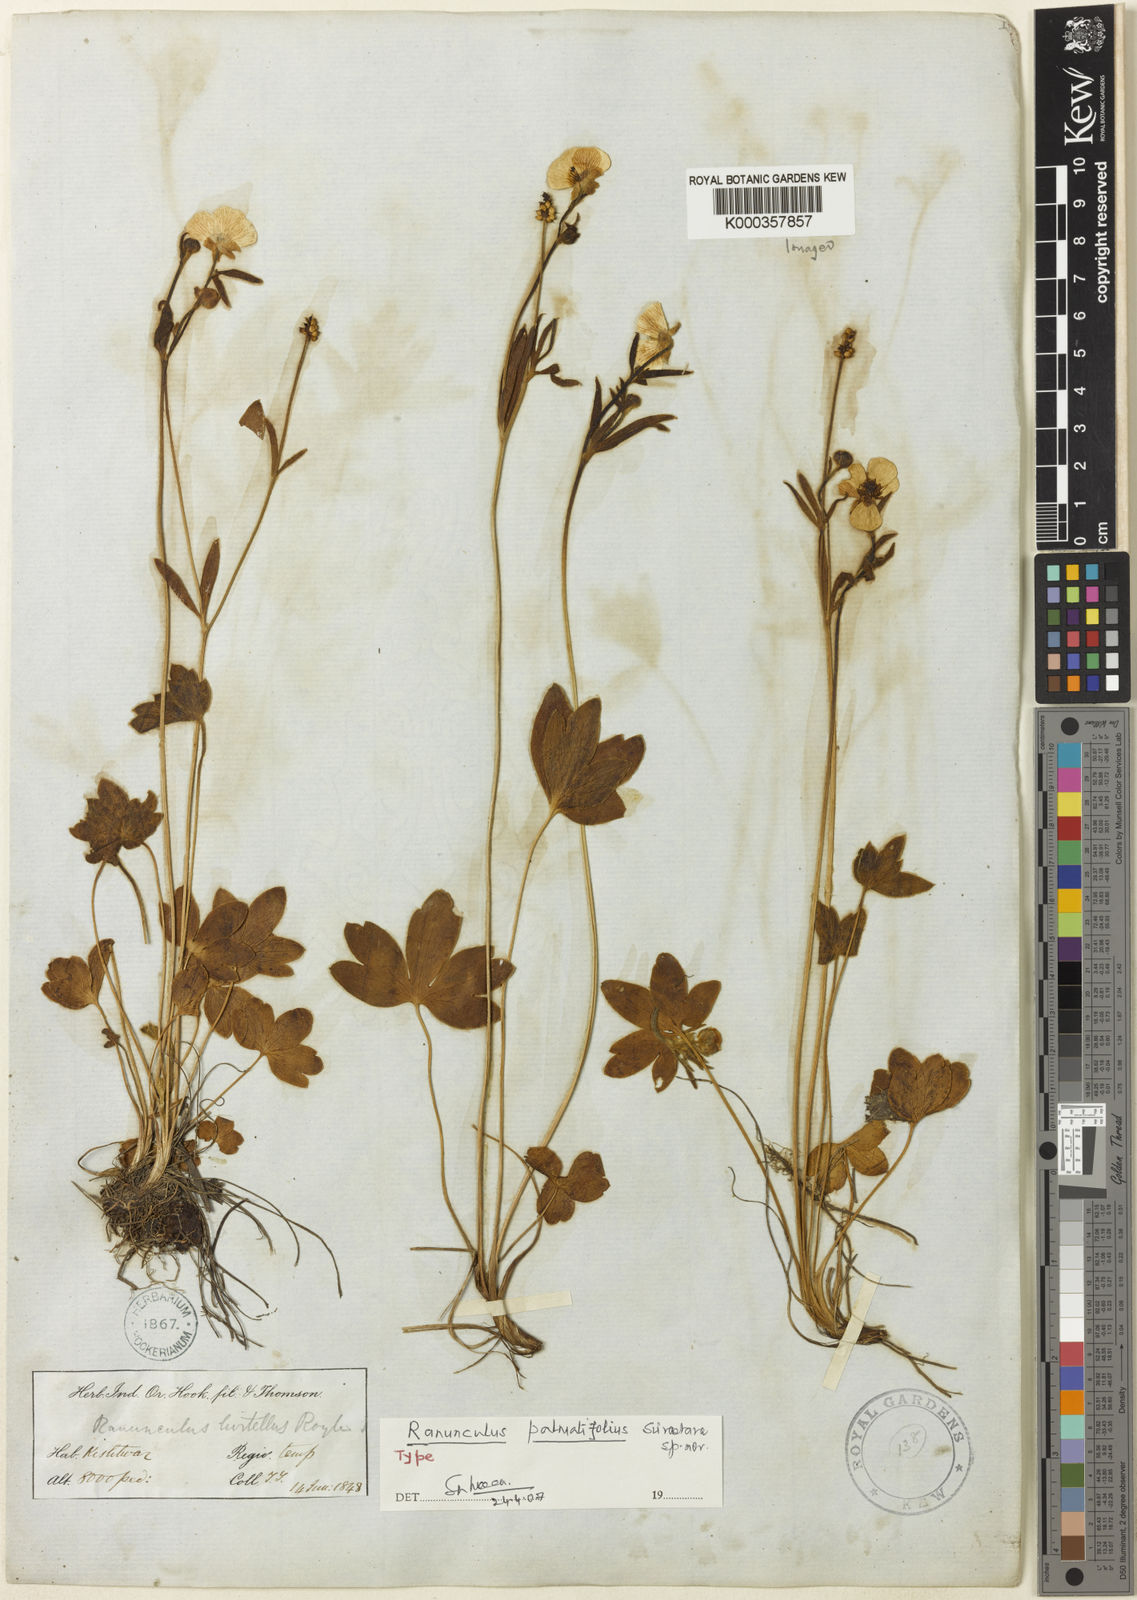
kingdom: Plantae
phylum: Tracheophyta
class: Magnoliopsida
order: Ranunculales
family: Ranunculaceae
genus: Ranunculus
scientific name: Ranunculus
